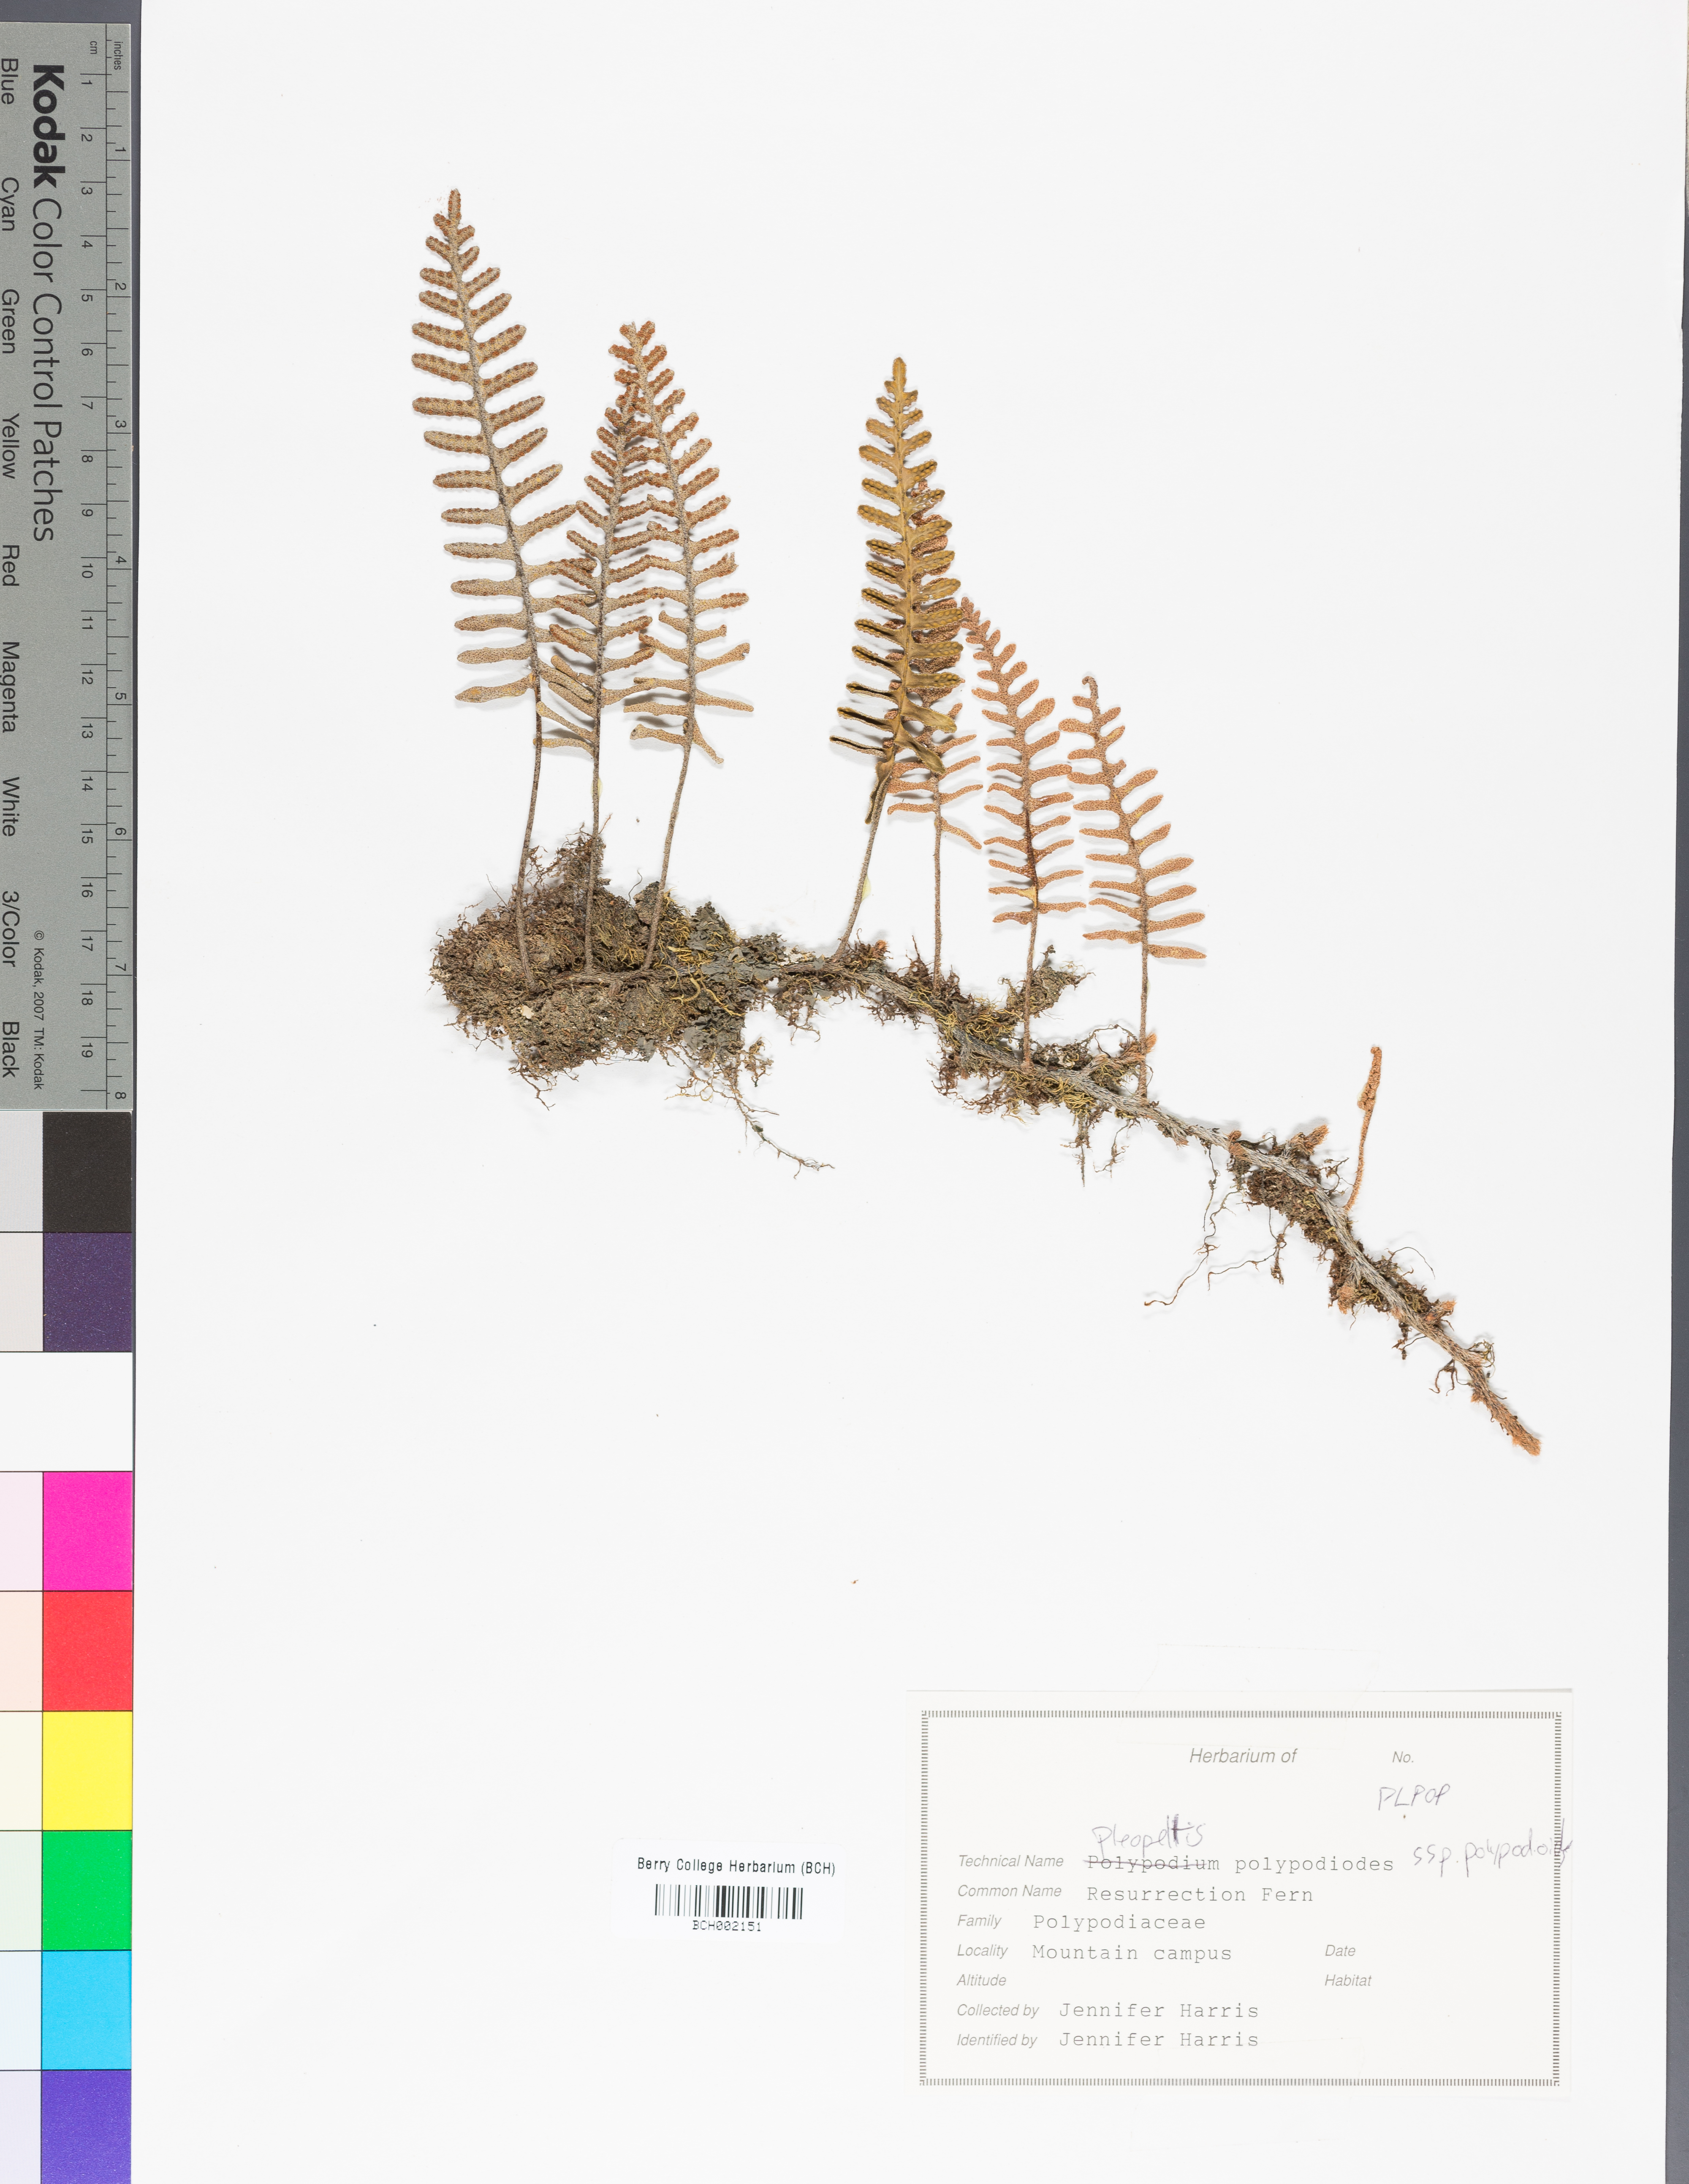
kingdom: Plantae
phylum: Tracheophyta
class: Polypodiopsida
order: Polypodiales
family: Polypodiaceae
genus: Pleopeltis
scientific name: Pleopeltis polypodioides
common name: Resurrection fern
